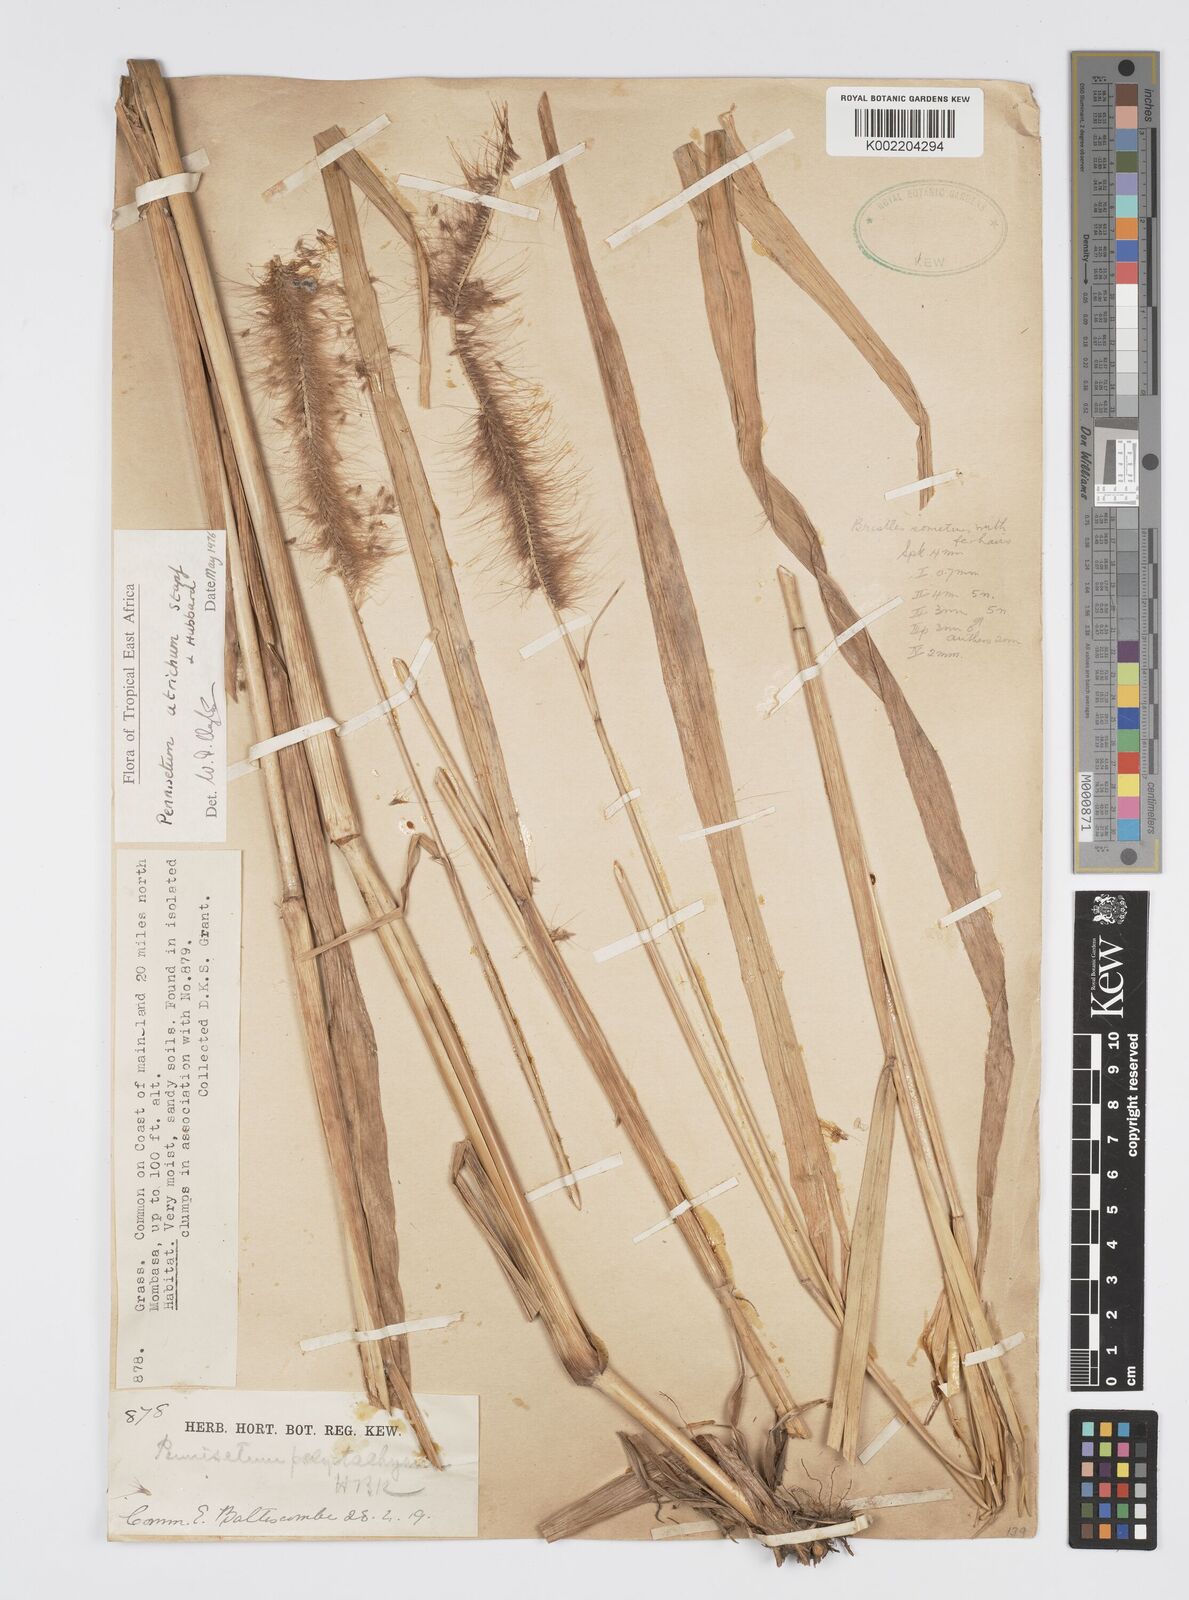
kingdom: Plantae
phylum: Tracheophyta
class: Liliopsida
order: Poales
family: Poaceae
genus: Setaria
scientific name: Setaria parviflora
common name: Knotroot bristle-grass
